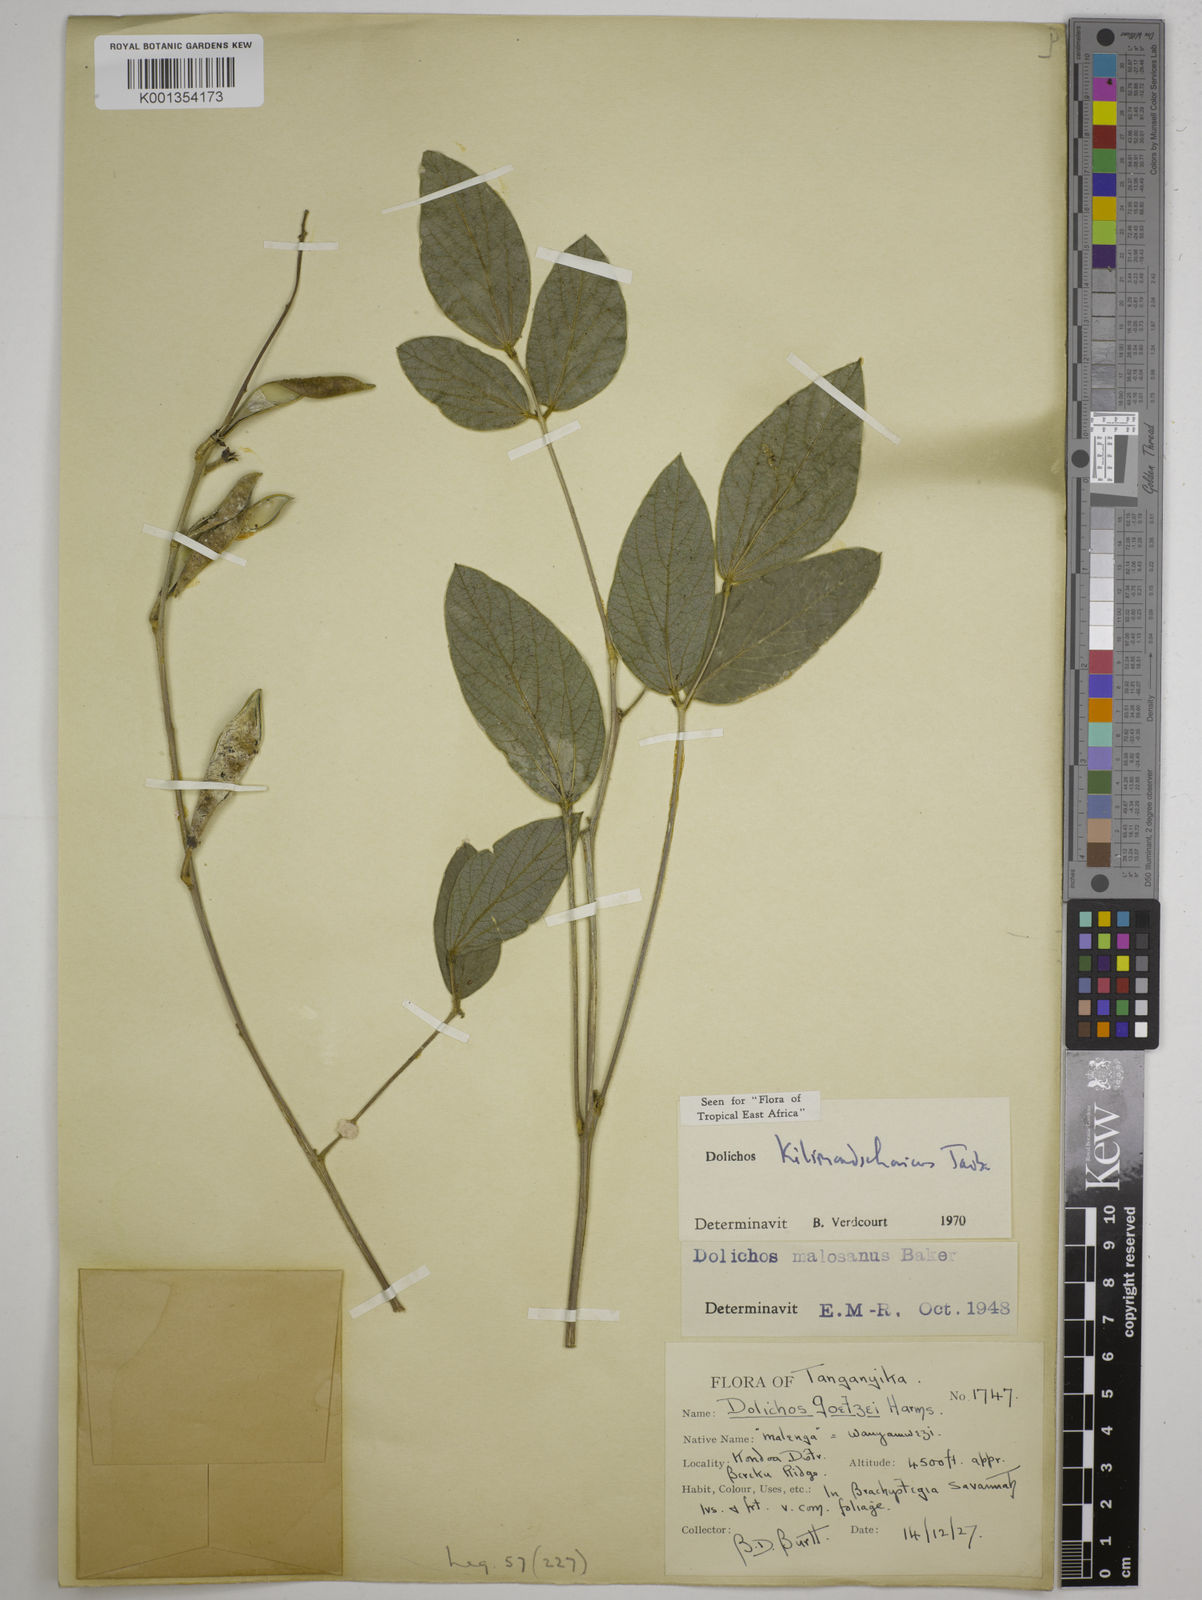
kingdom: Plantae
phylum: Tracheophyta
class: Magnoliopsida
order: Fabales
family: Fabaceae
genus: Dolichos
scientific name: Dolichos kilimandscharicus
